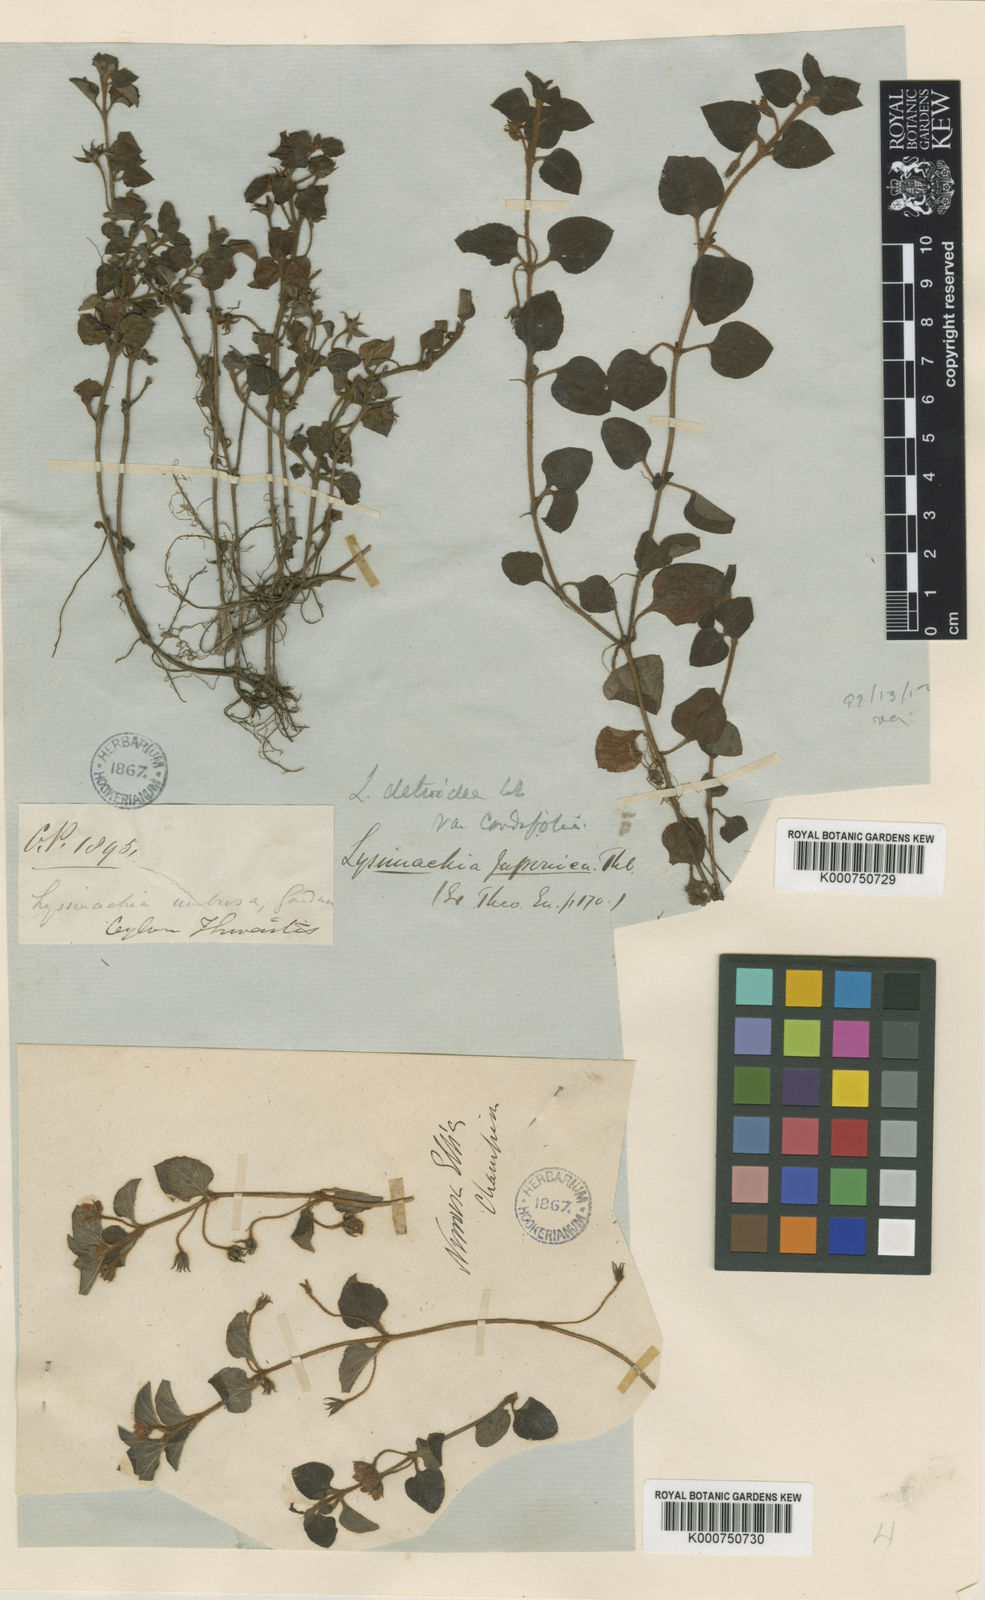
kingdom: Plantae
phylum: Tracheophyta
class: Magnoliopsida
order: Ericales
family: Primulaceae
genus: Lysimachia
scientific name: Lysimachia deltoidea
